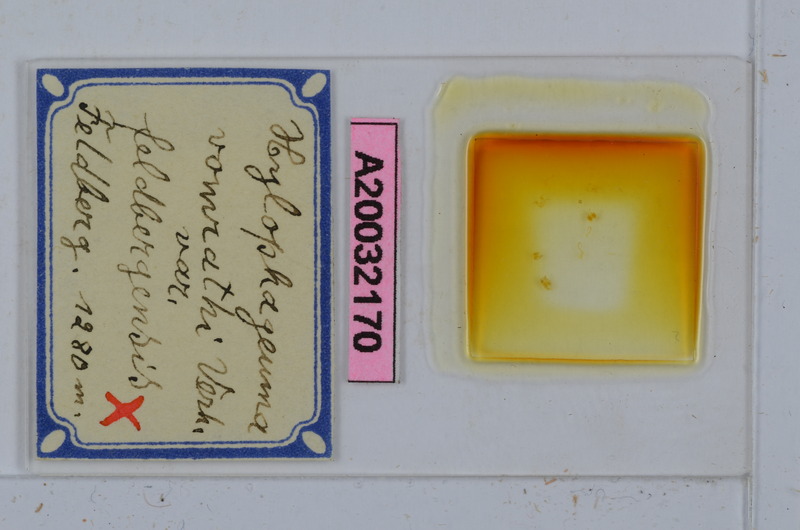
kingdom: Animalia
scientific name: Animalia
